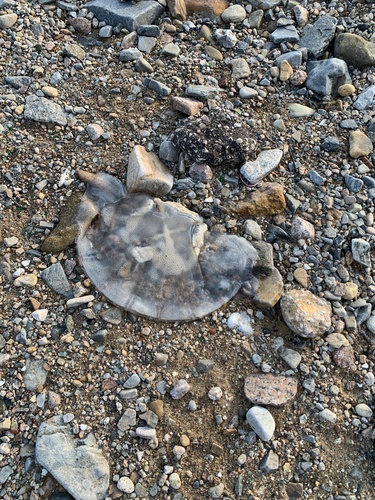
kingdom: Animalia
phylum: Cnidaria
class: Scyphozoa
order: Rhizostomeae
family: Rhizostomatidae
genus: Rhopilema
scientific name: Rhopilema hispidum
